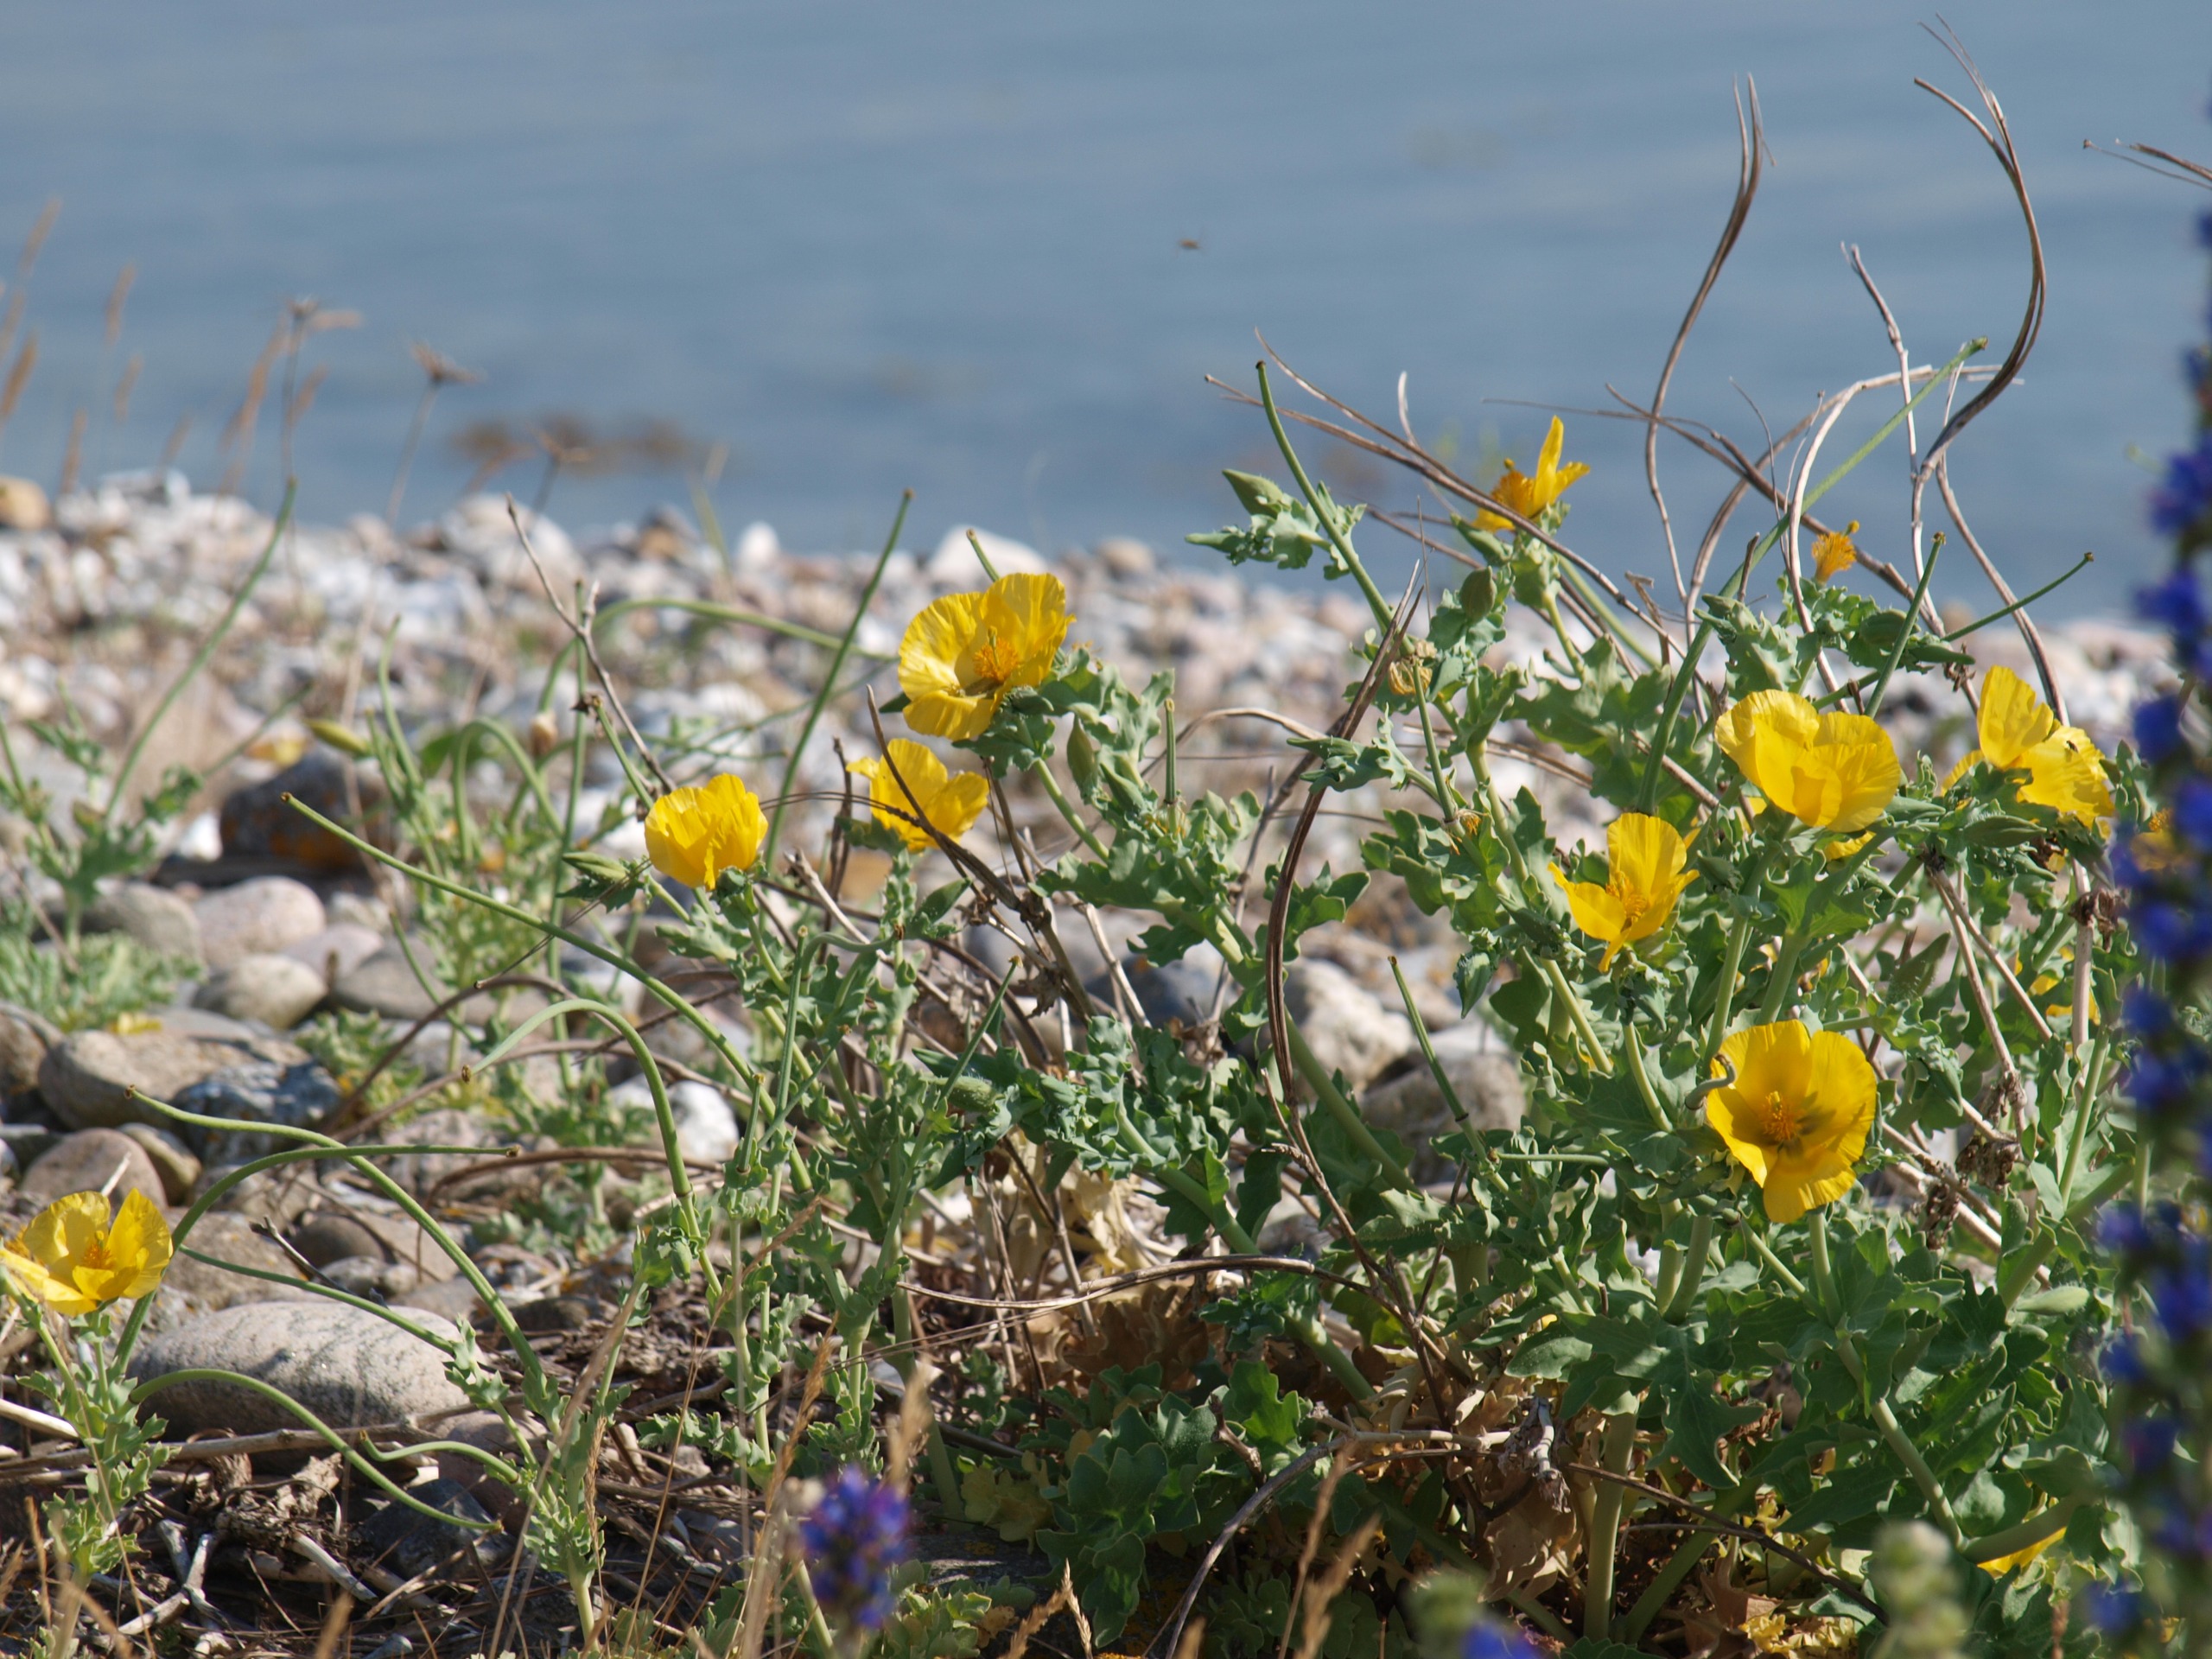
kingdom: Plantae
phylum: Tracheophyta
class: Magnoliopsida
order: Ranunculales
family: Papaveraceae
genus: Glaucium
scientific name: Glaucium flavum
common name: Hornskulpe
